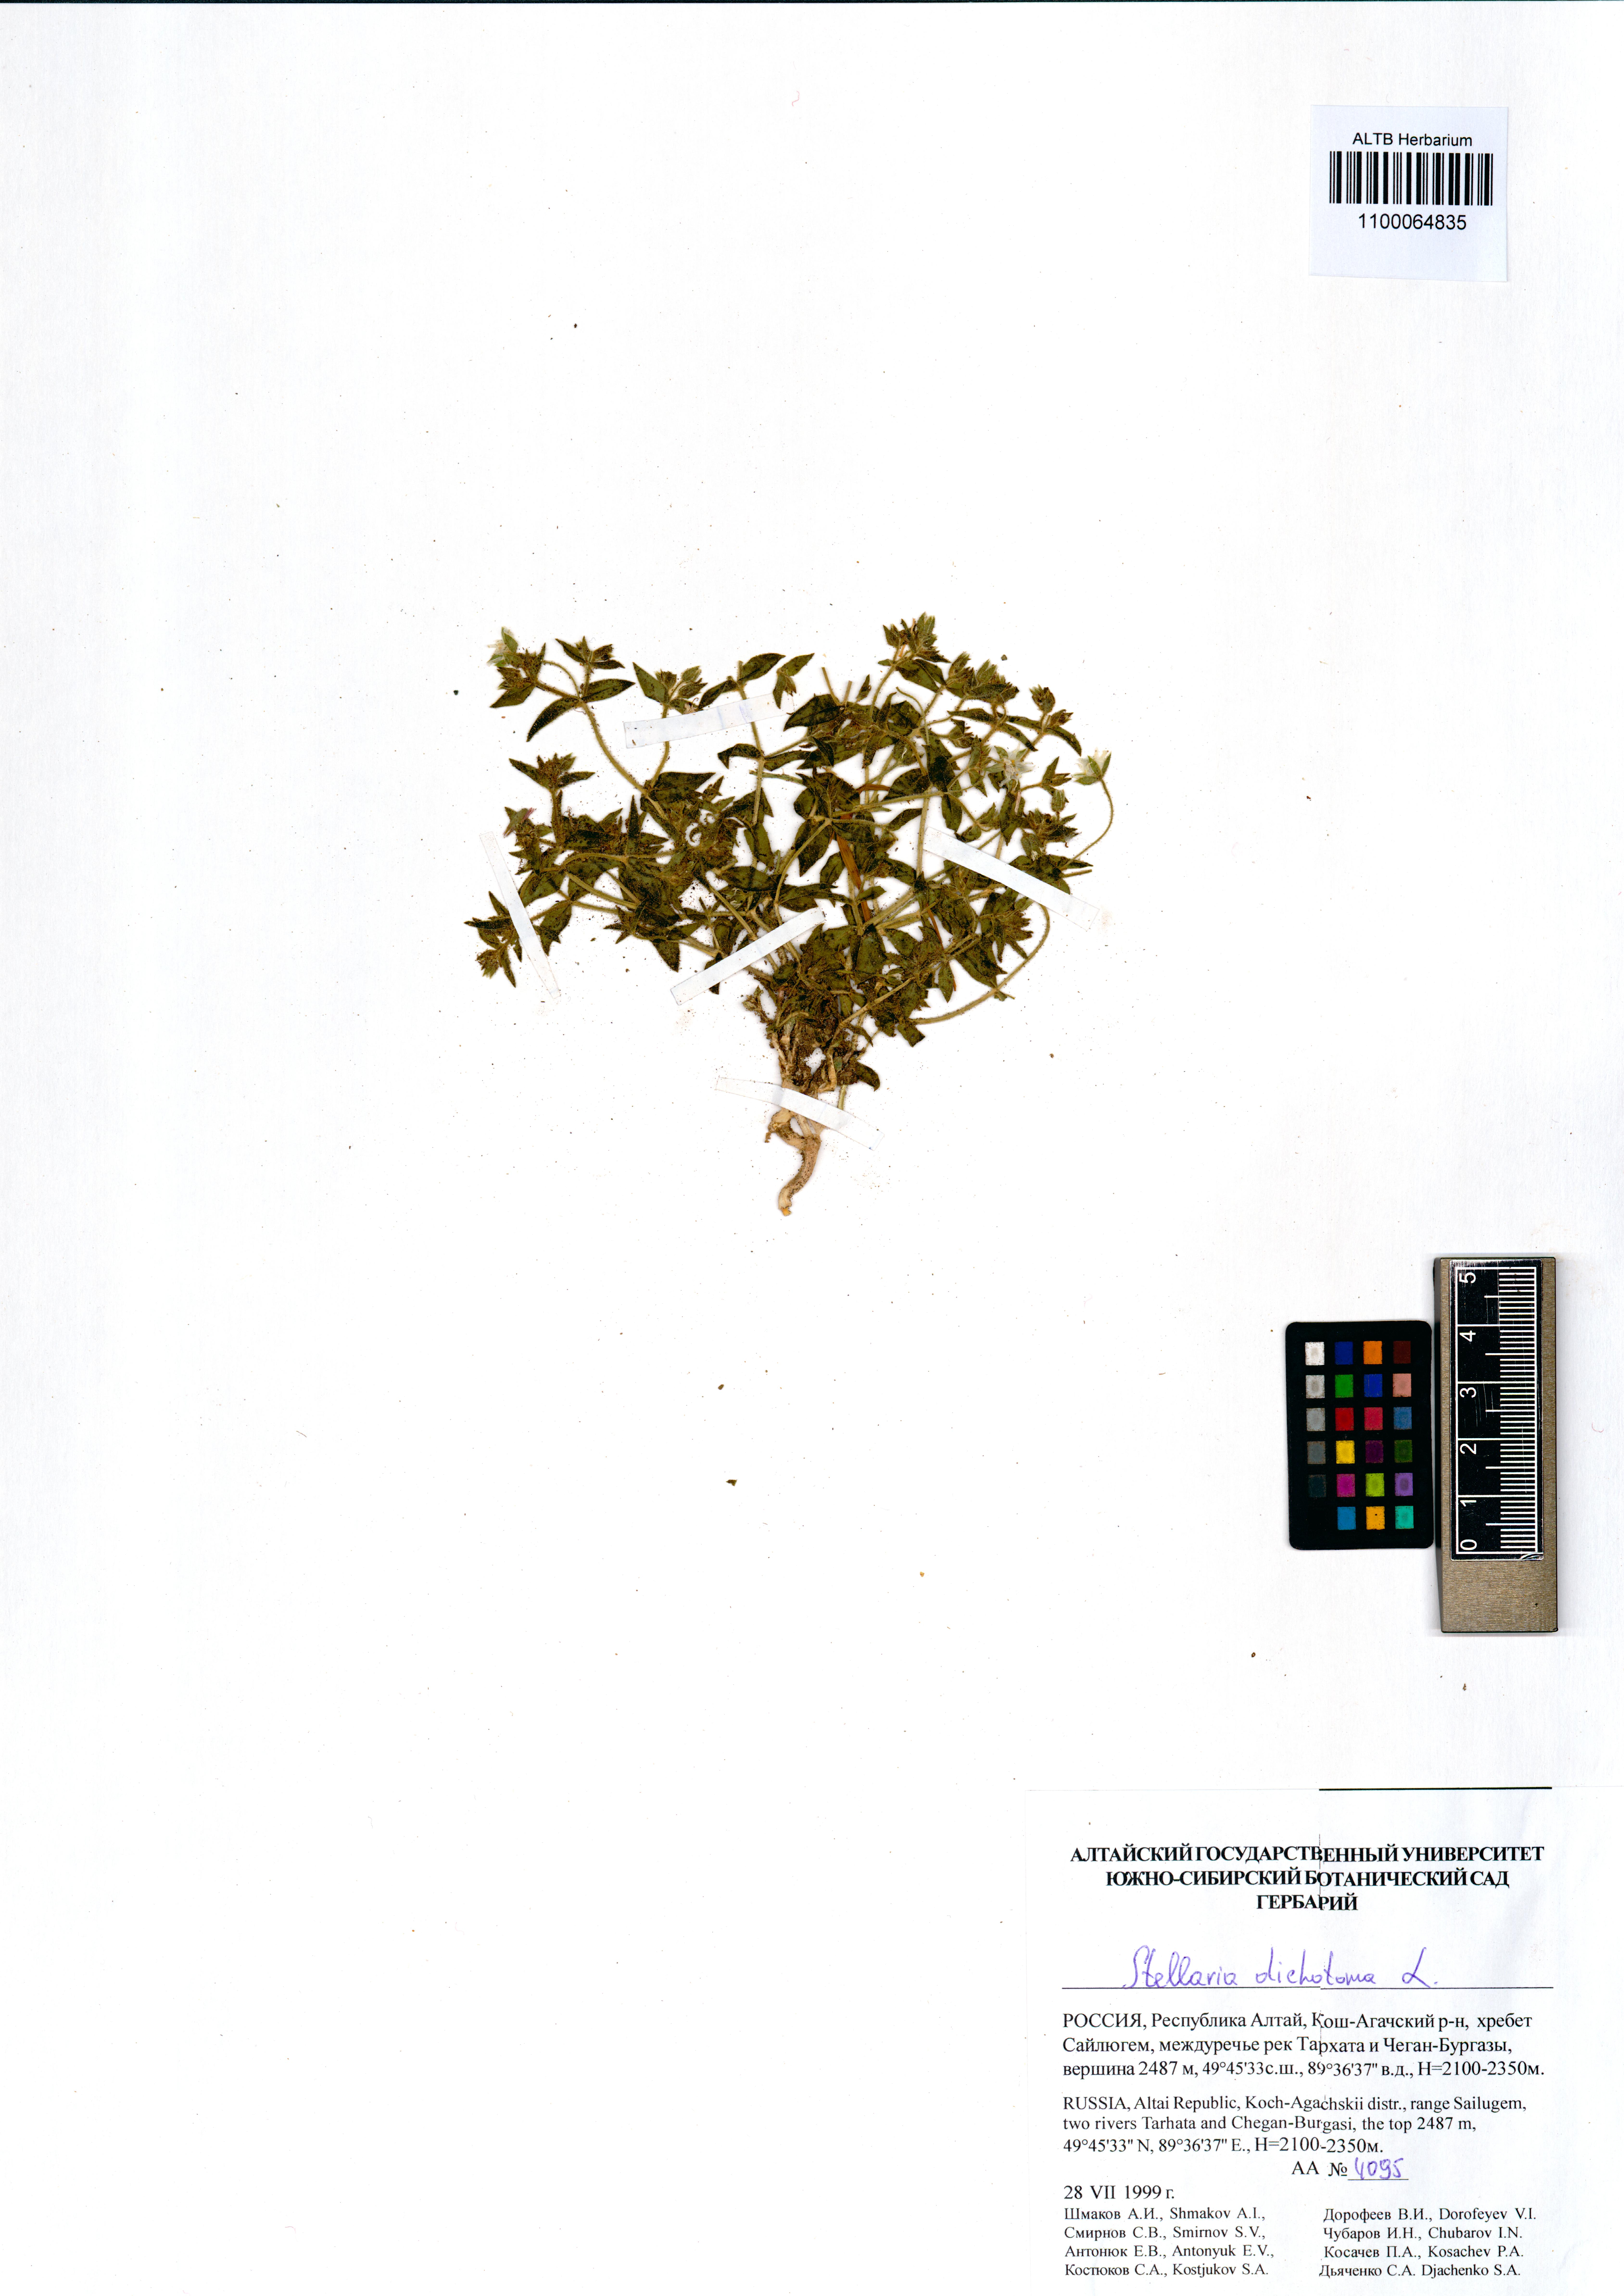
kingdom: Plantae
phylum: Tracheophyta
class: Magnoliopsida
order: Caryophyllales
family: Caryophyllaceae
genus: Mesostemma
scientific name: Mesostemma dichotomum
